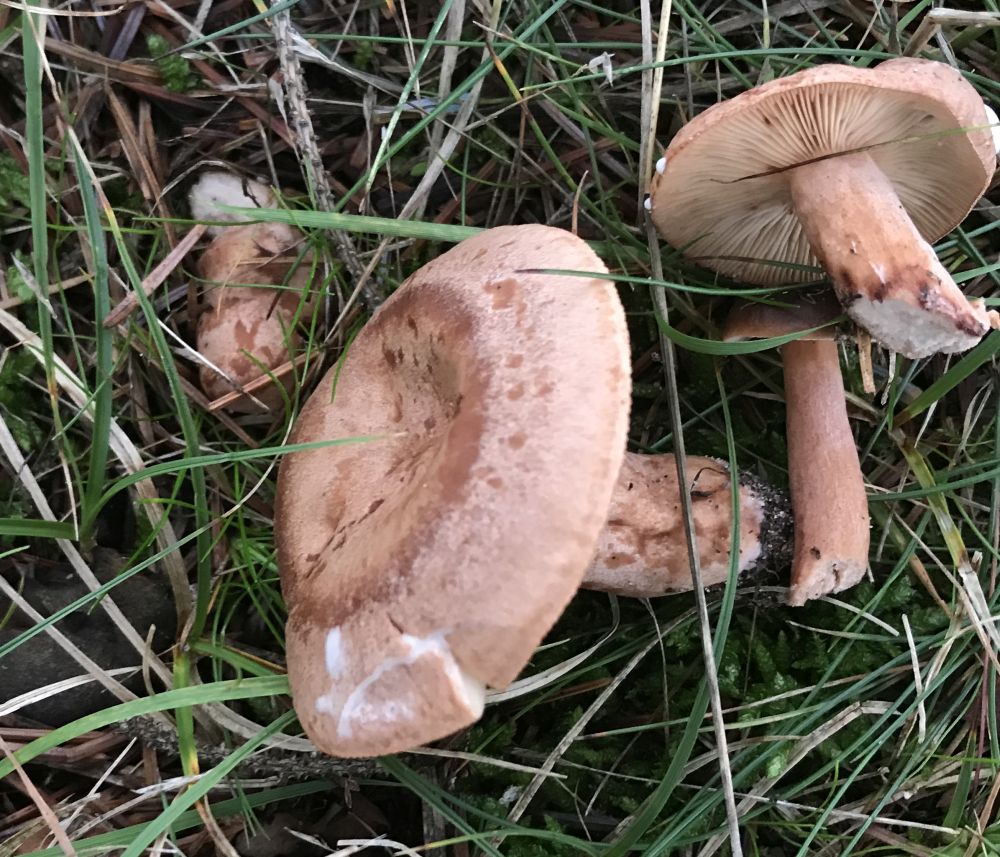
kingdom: Fungi
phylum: Basidiomycota
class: Agaricomycetes
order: Russulales
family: Russulaceae
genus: Lactarius
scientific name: Lactarius quietus
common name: ege-mælkehat
